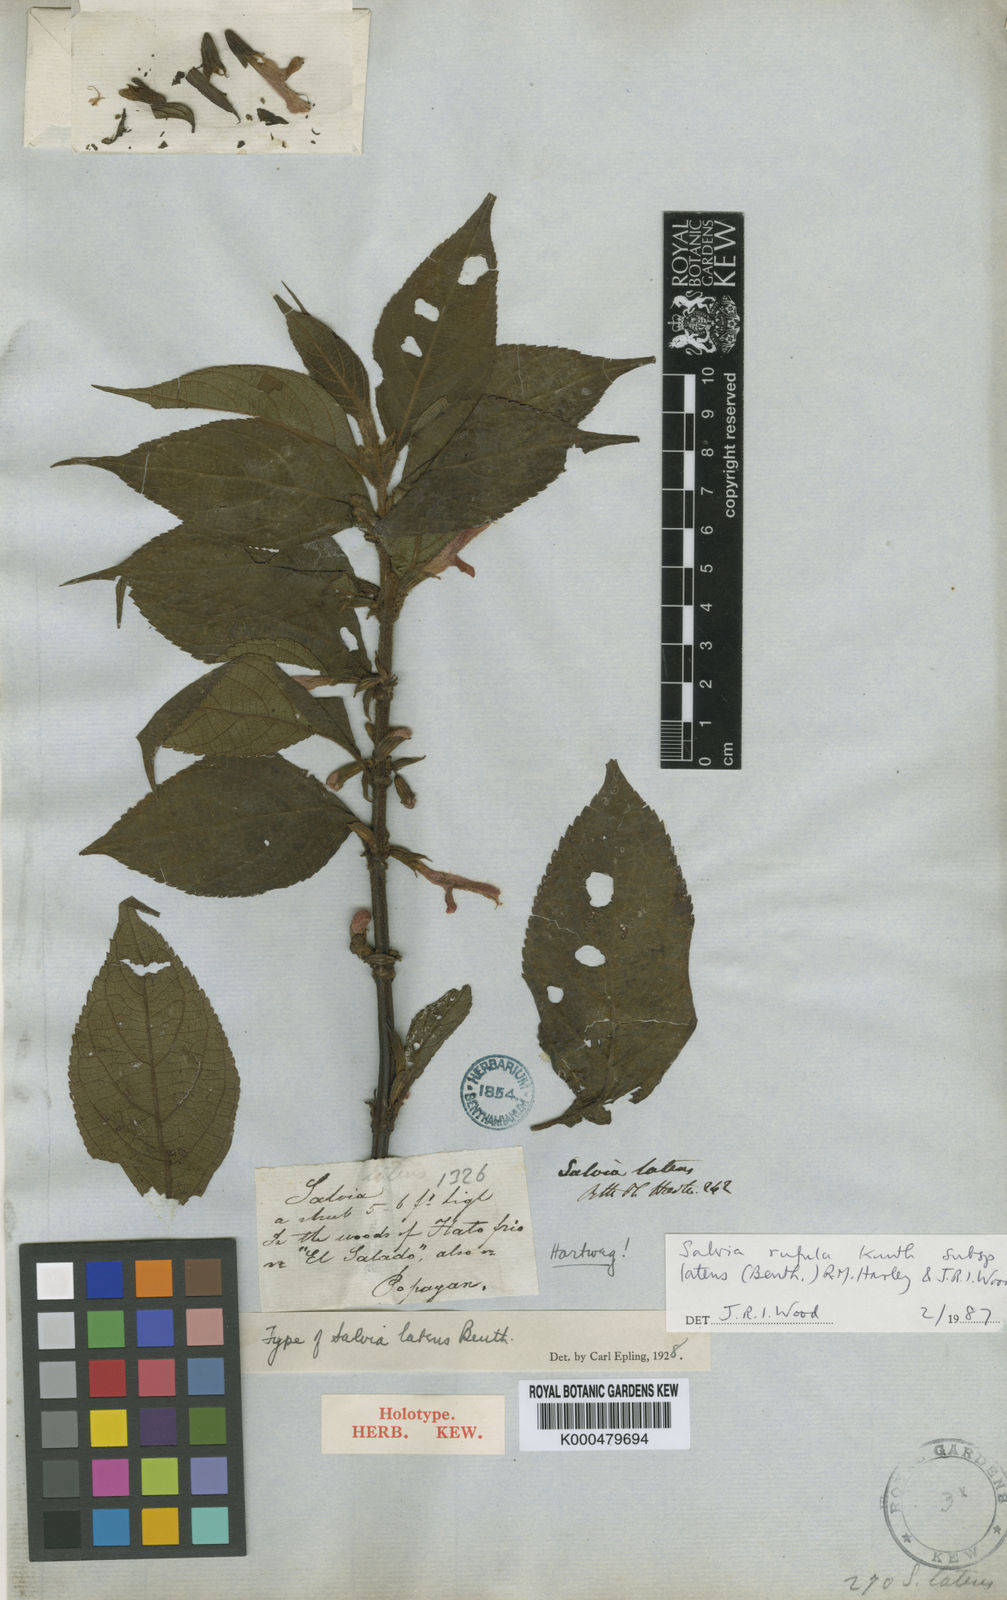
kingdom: Plantae
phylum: Tracheophyta
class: Magnoliopsida
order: Lamiales
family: Lamiaceae
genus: Salvia
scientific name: Salvia rufula
